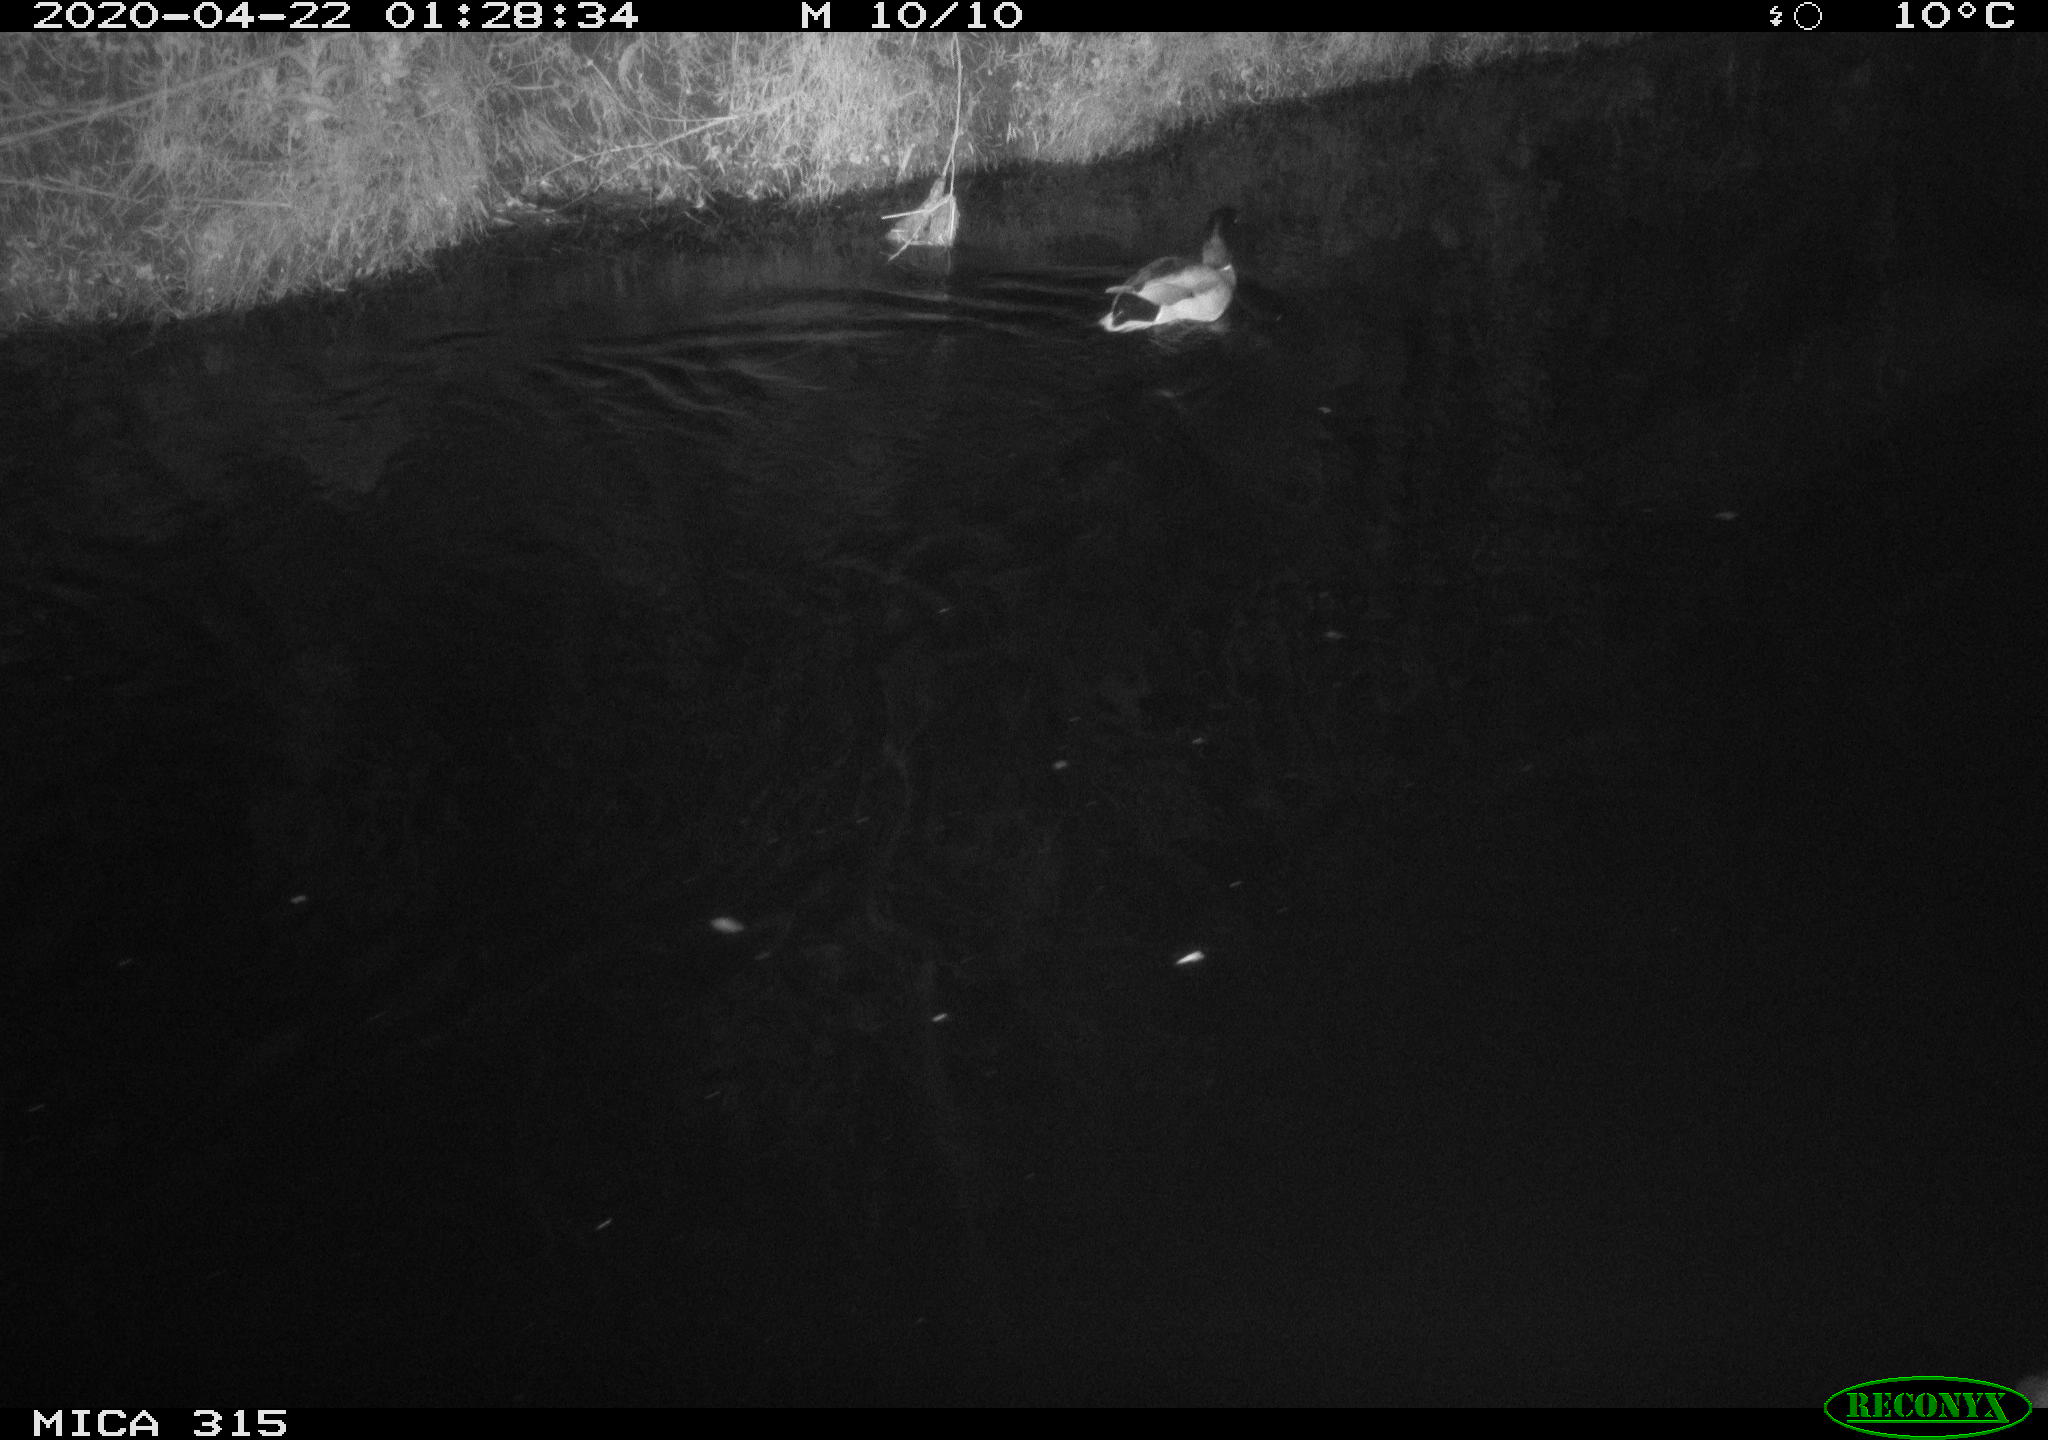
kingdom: Animalia
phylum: Chordata
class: Aves
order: Anseriformes
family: Anatidae
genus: Anas
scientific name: Anas platyrhynchos
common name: Mallard
